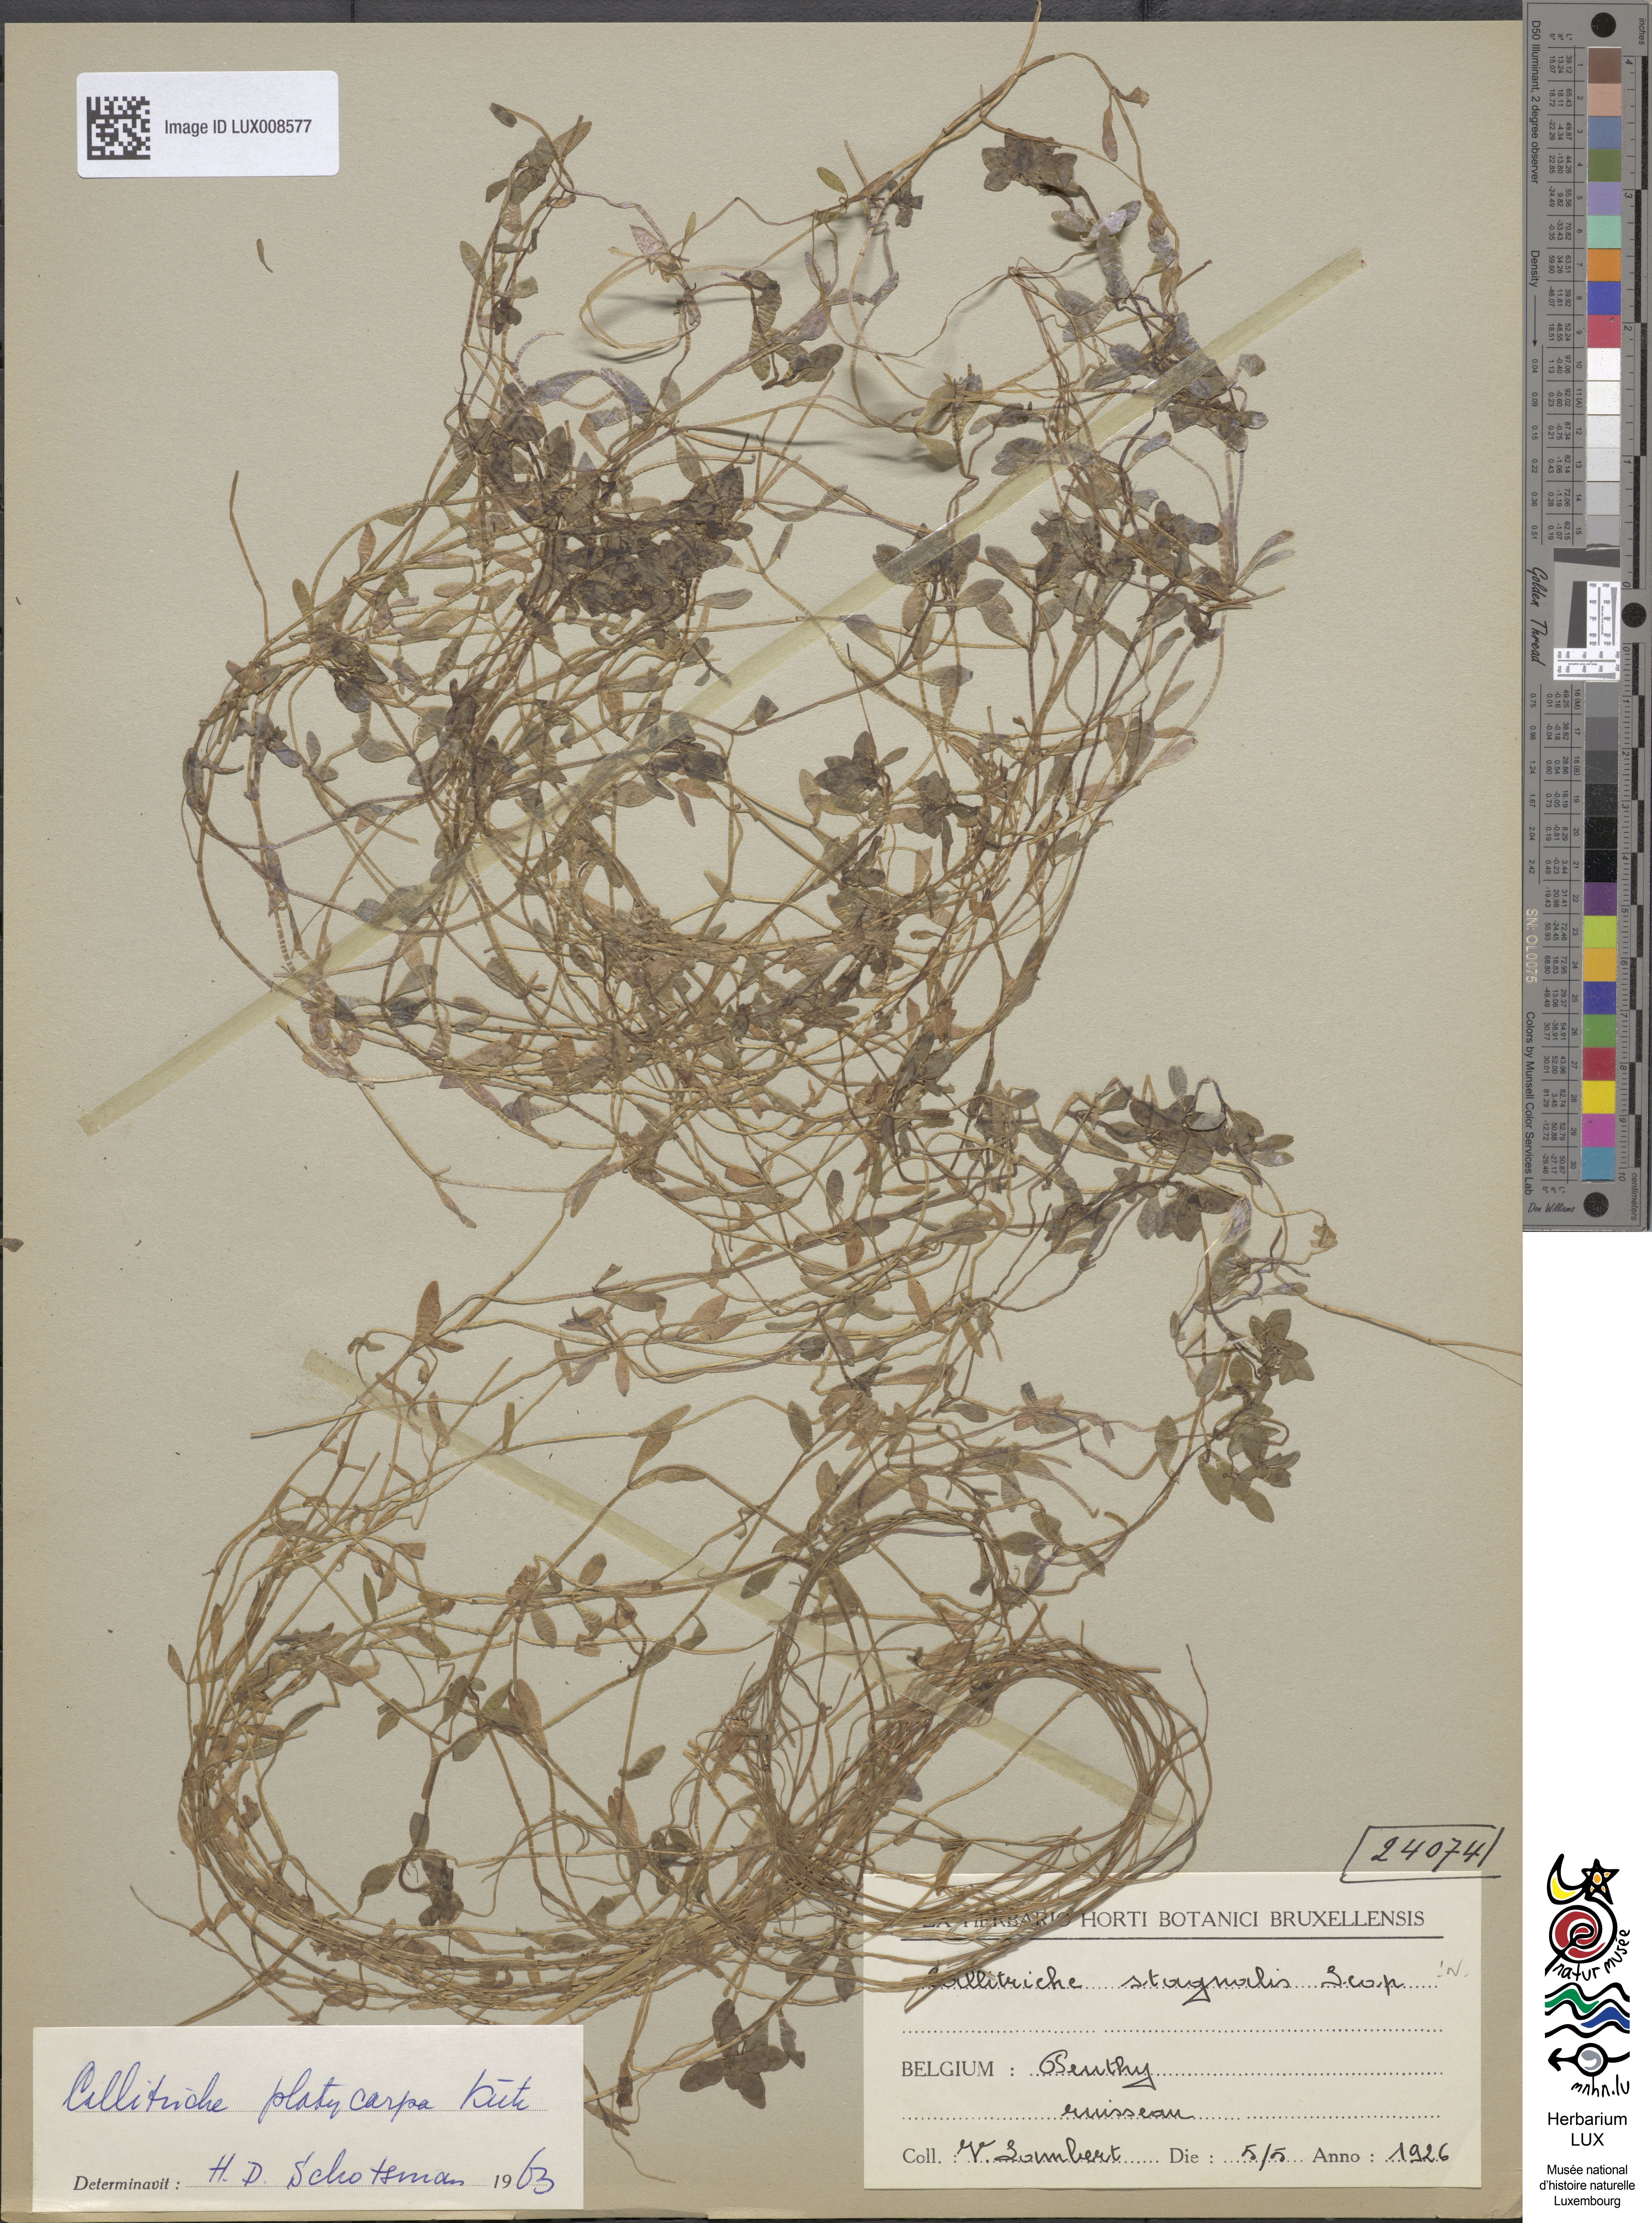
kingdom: Plantae
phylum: Tracheophyta
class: Magnoliopsida
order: Lamiales
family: Plantaginaceae
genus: Callitriche
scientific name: Callitriche stagnalis
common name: Common water-starwort
